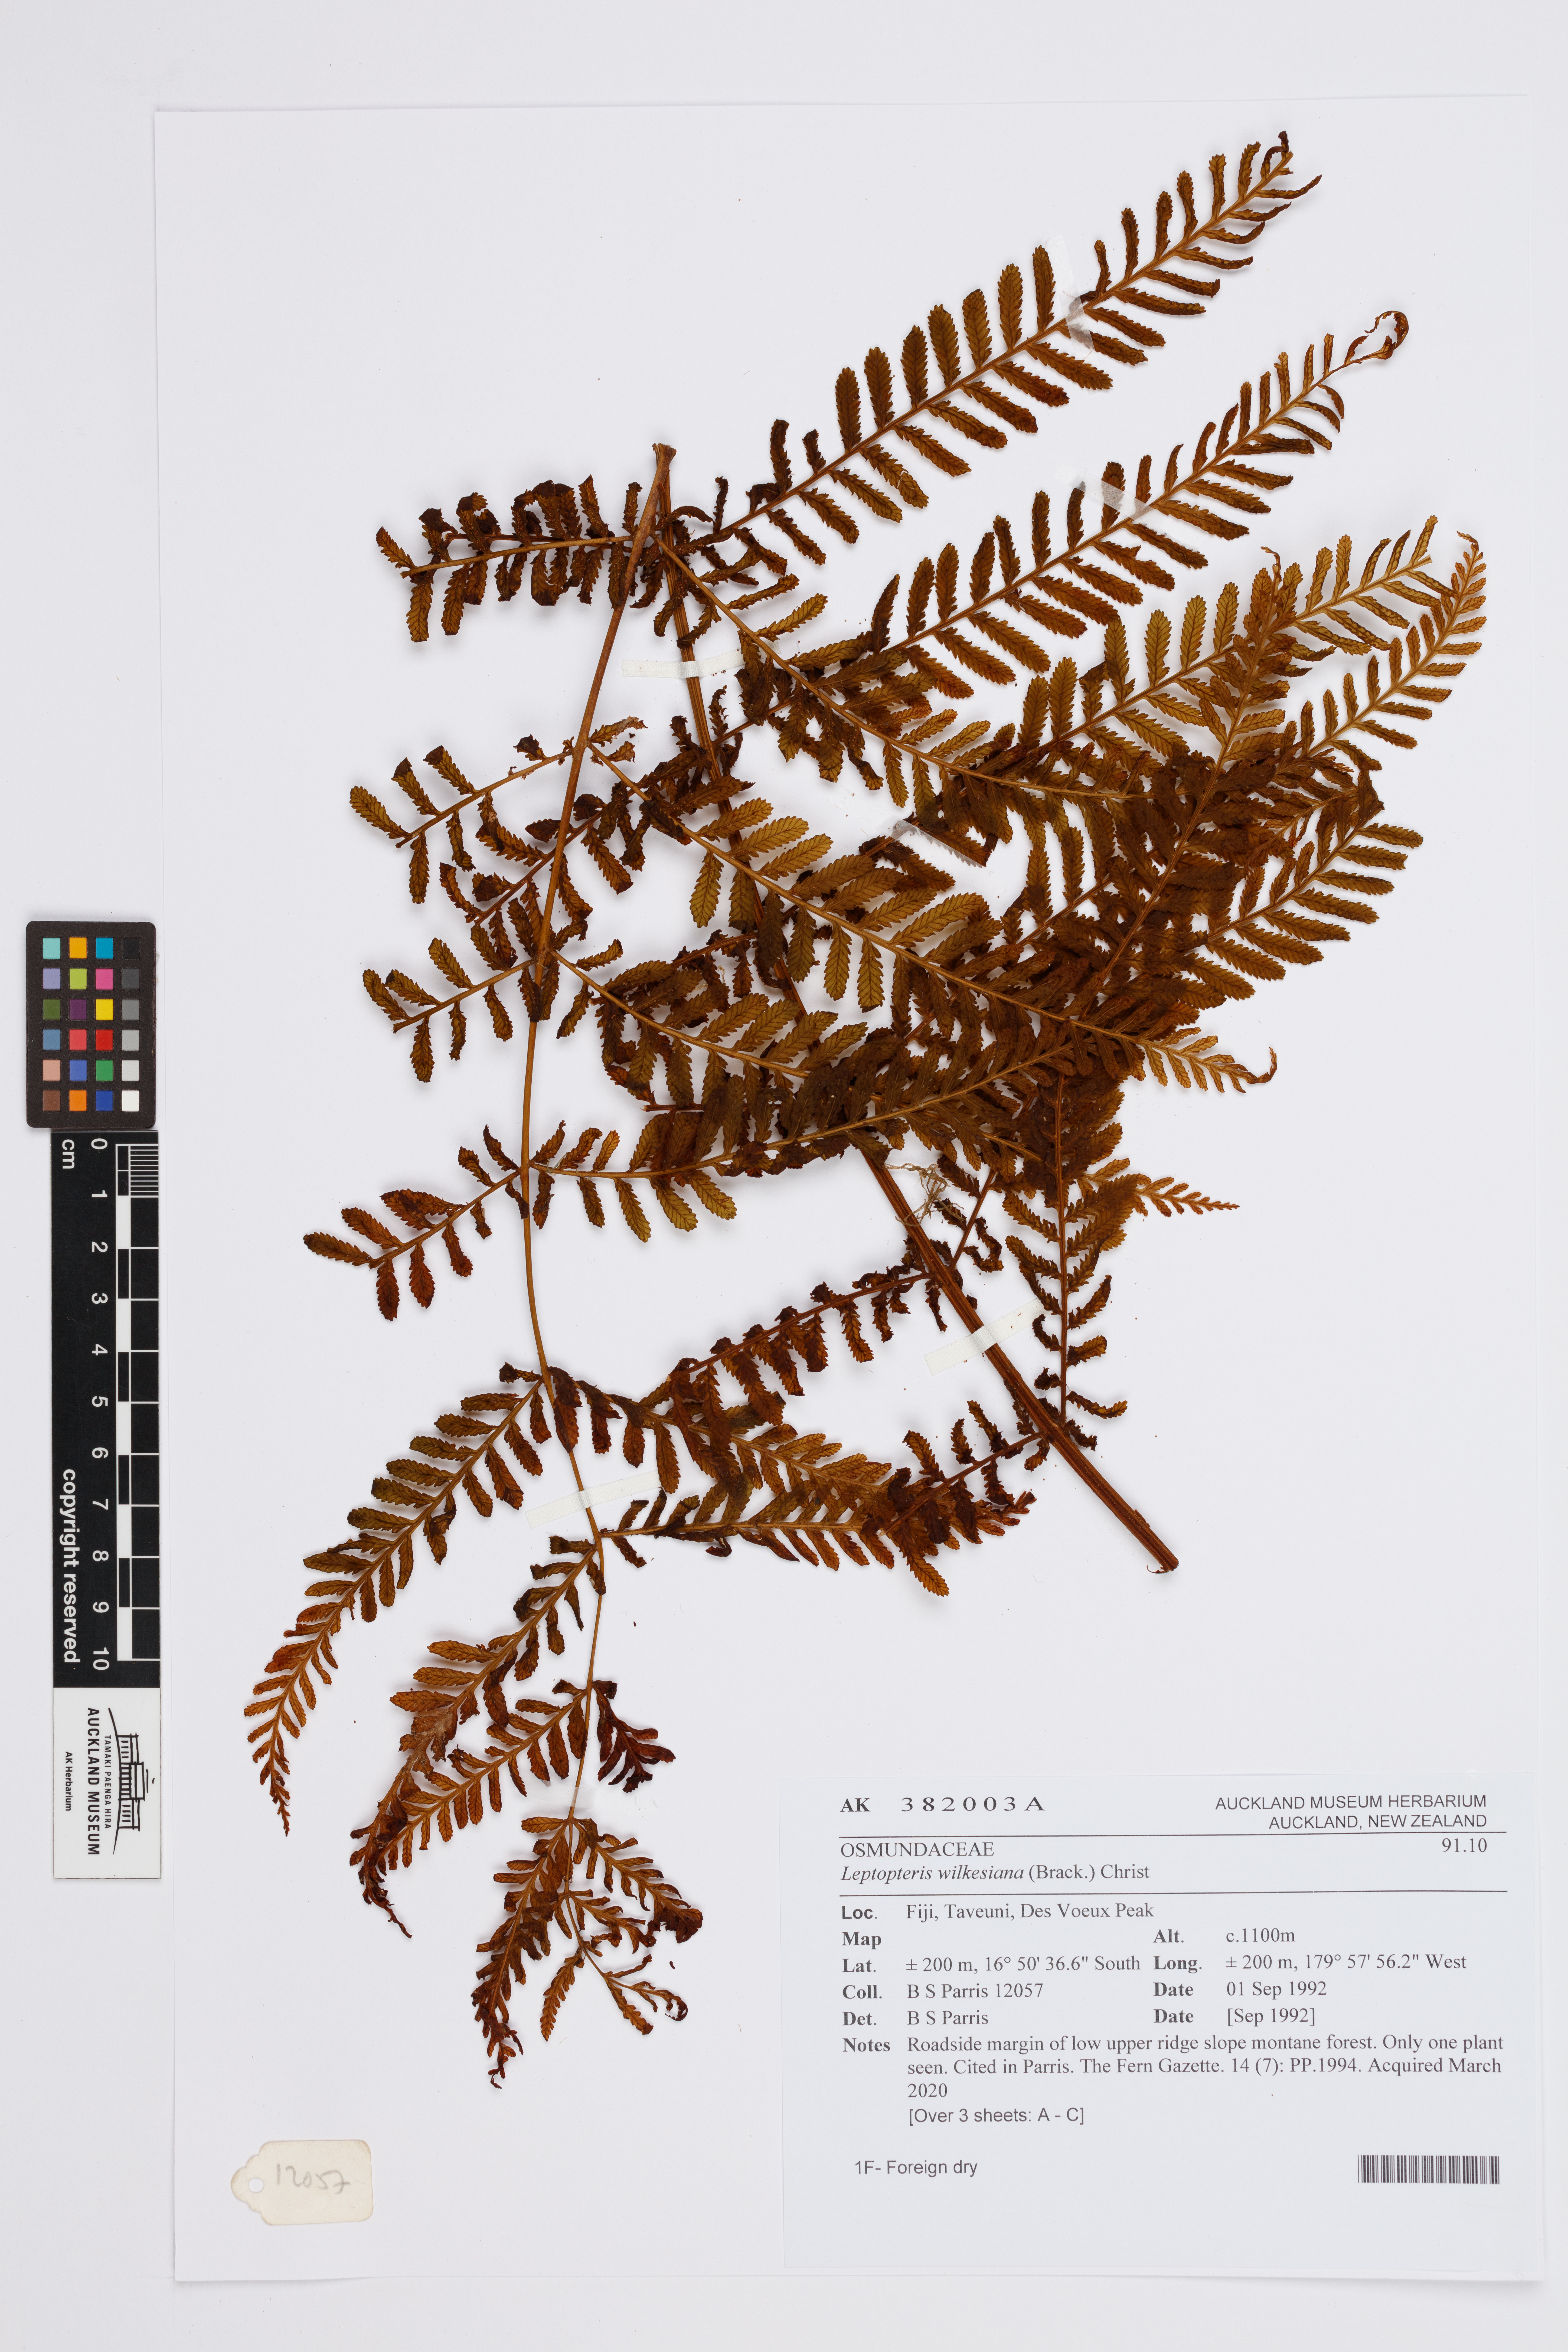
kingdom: Plantae
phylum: Tracheophyta
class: Polypodiopsida
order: Osmundales
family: Osmundaceae
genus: Leptopteris
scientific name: Leptopteris wilkesiana
